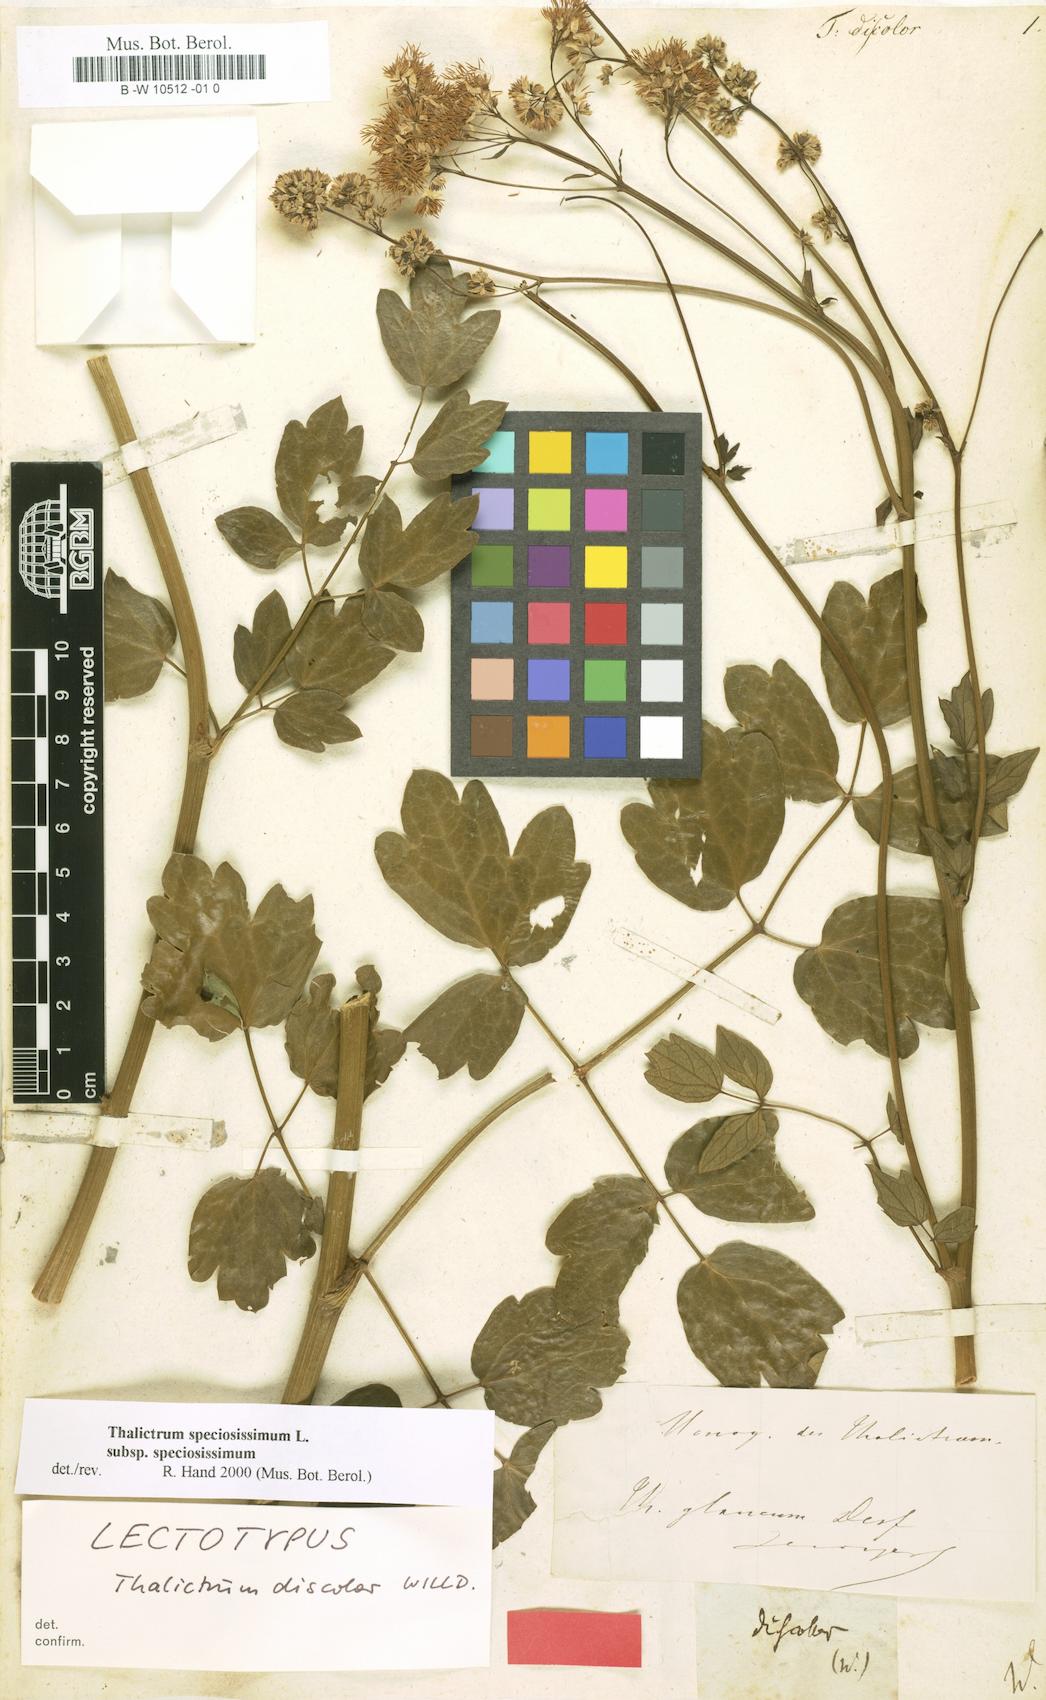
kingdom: Plantae
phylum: Tracheophyta
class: Magnoliopsida
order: Ranunculales
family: Ranunculaceae
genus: Thalictrum
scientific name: Thalictrum speciosissimum
